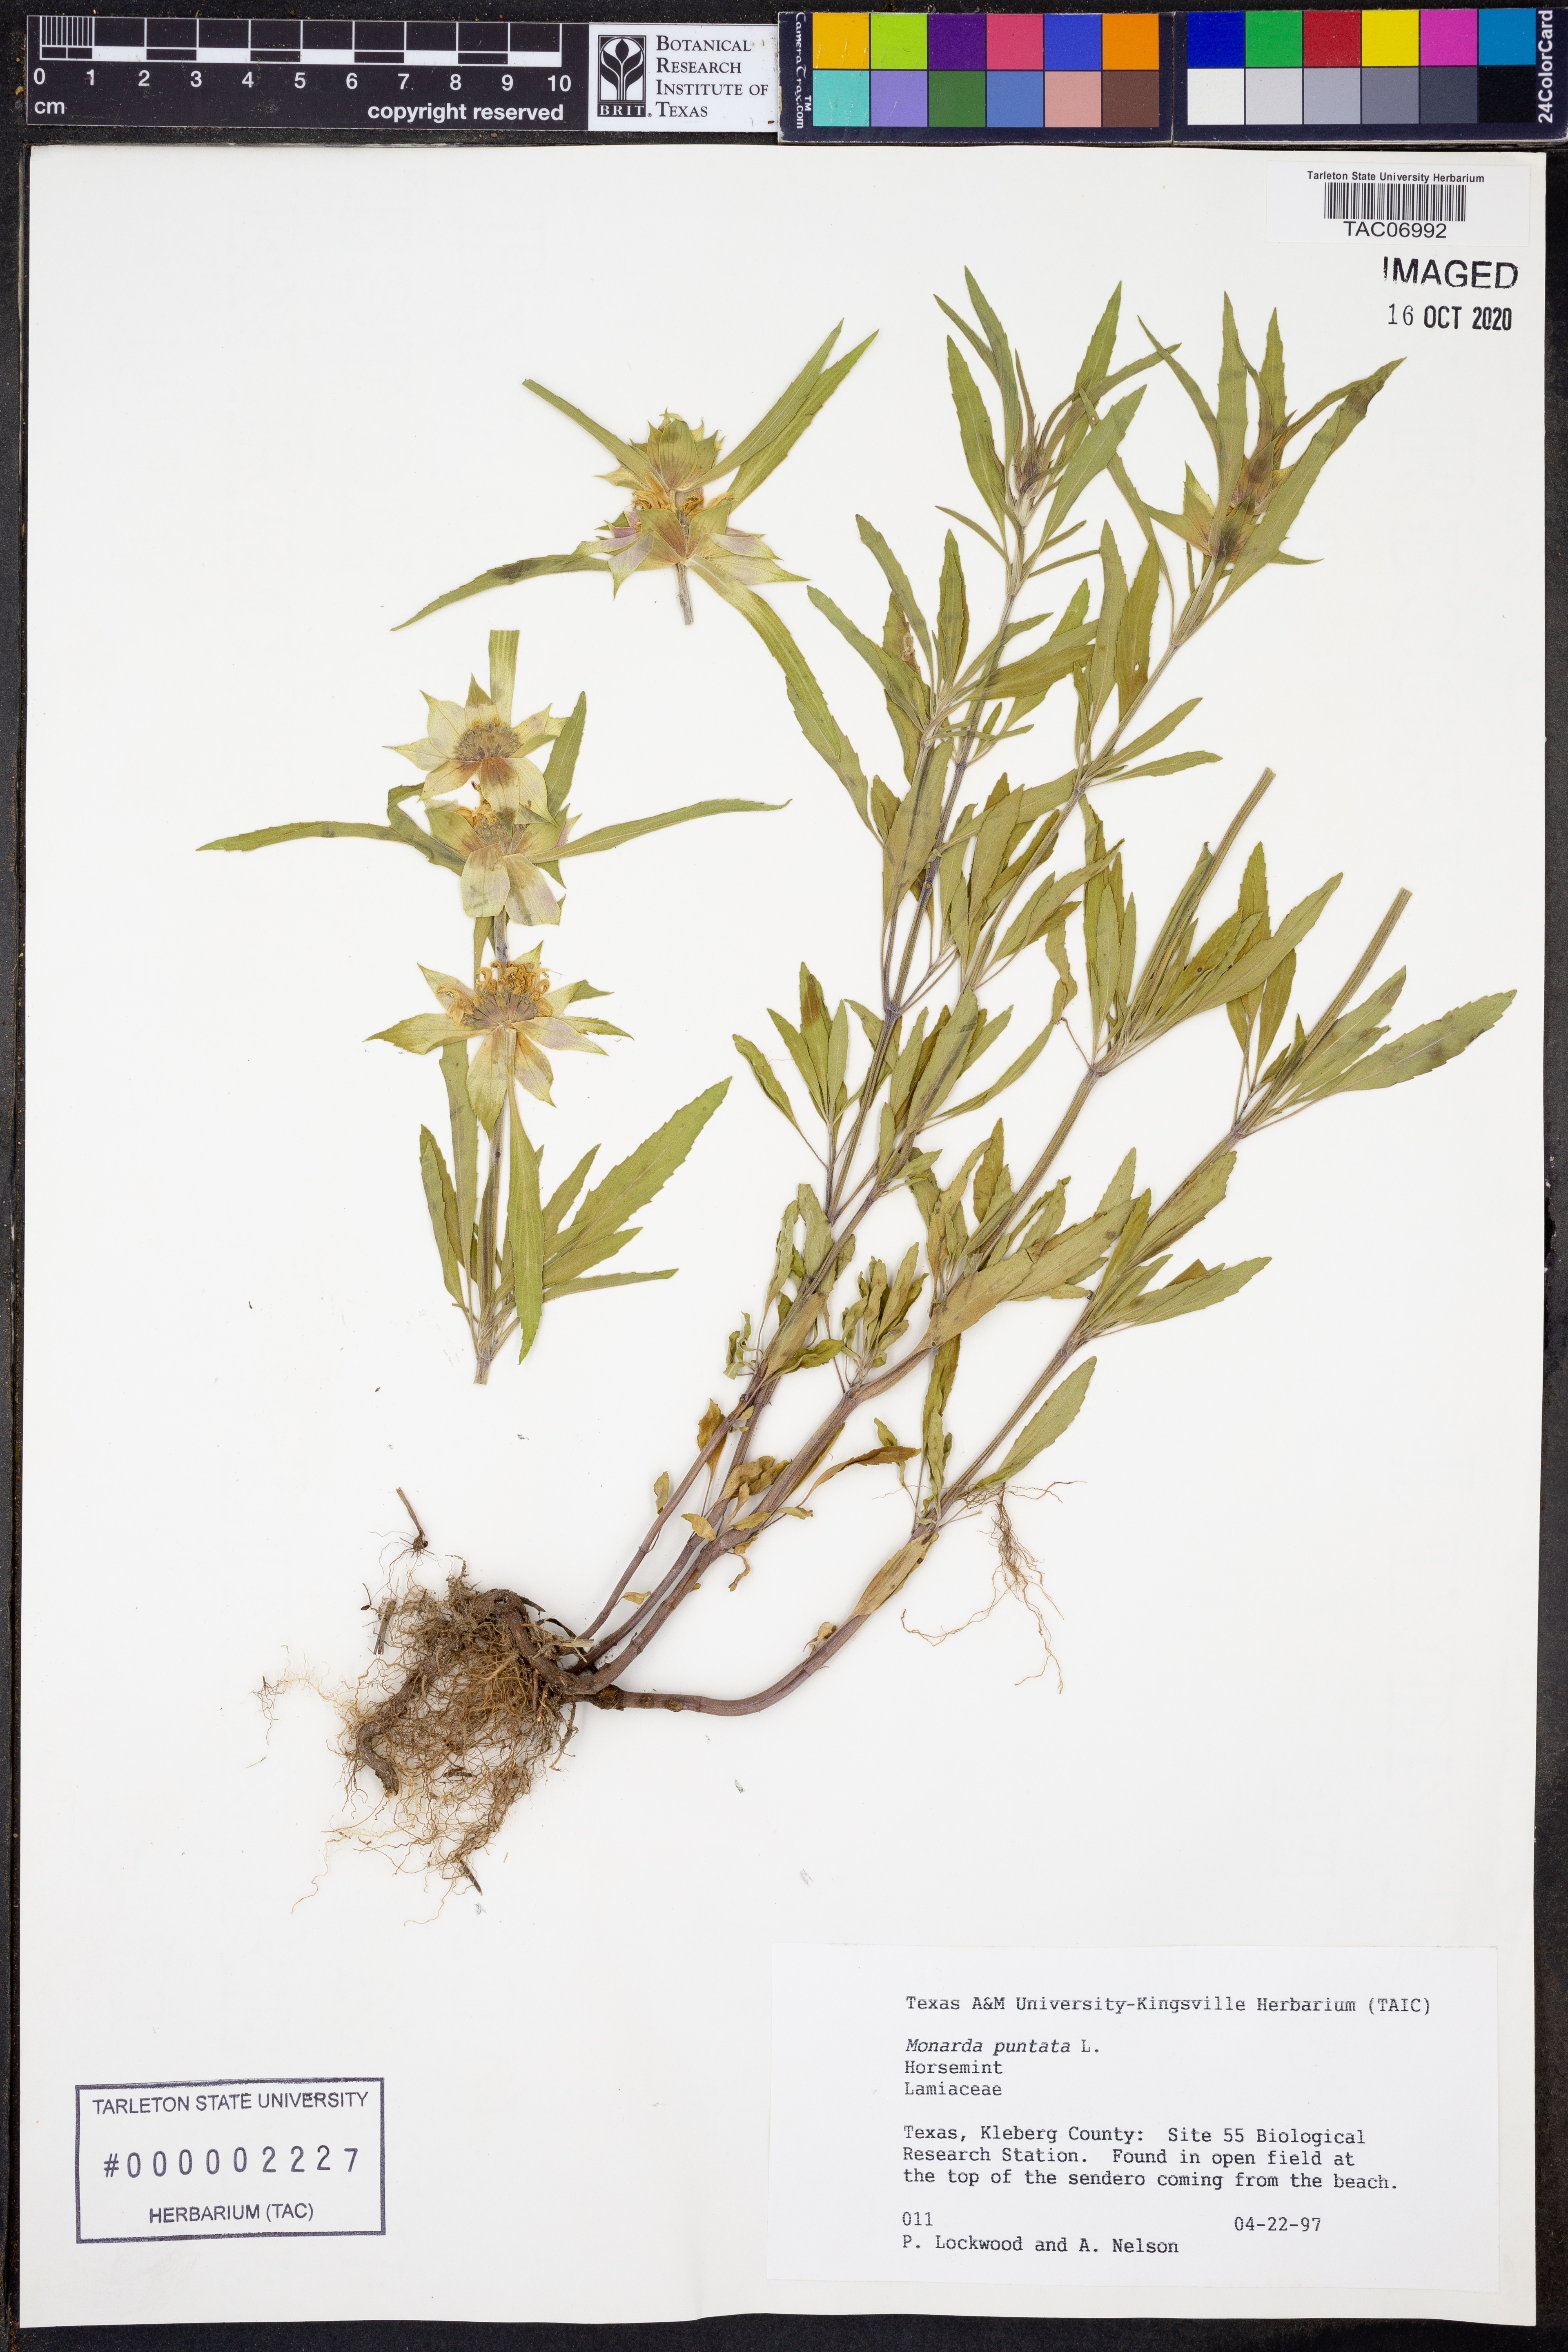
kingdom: Plantae
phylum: Tracheophyta
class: Magnoliopsida
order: Lamiales
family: Lamiaceae
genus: Monarda
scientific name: Monarda punctata
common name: Dotted monarda
